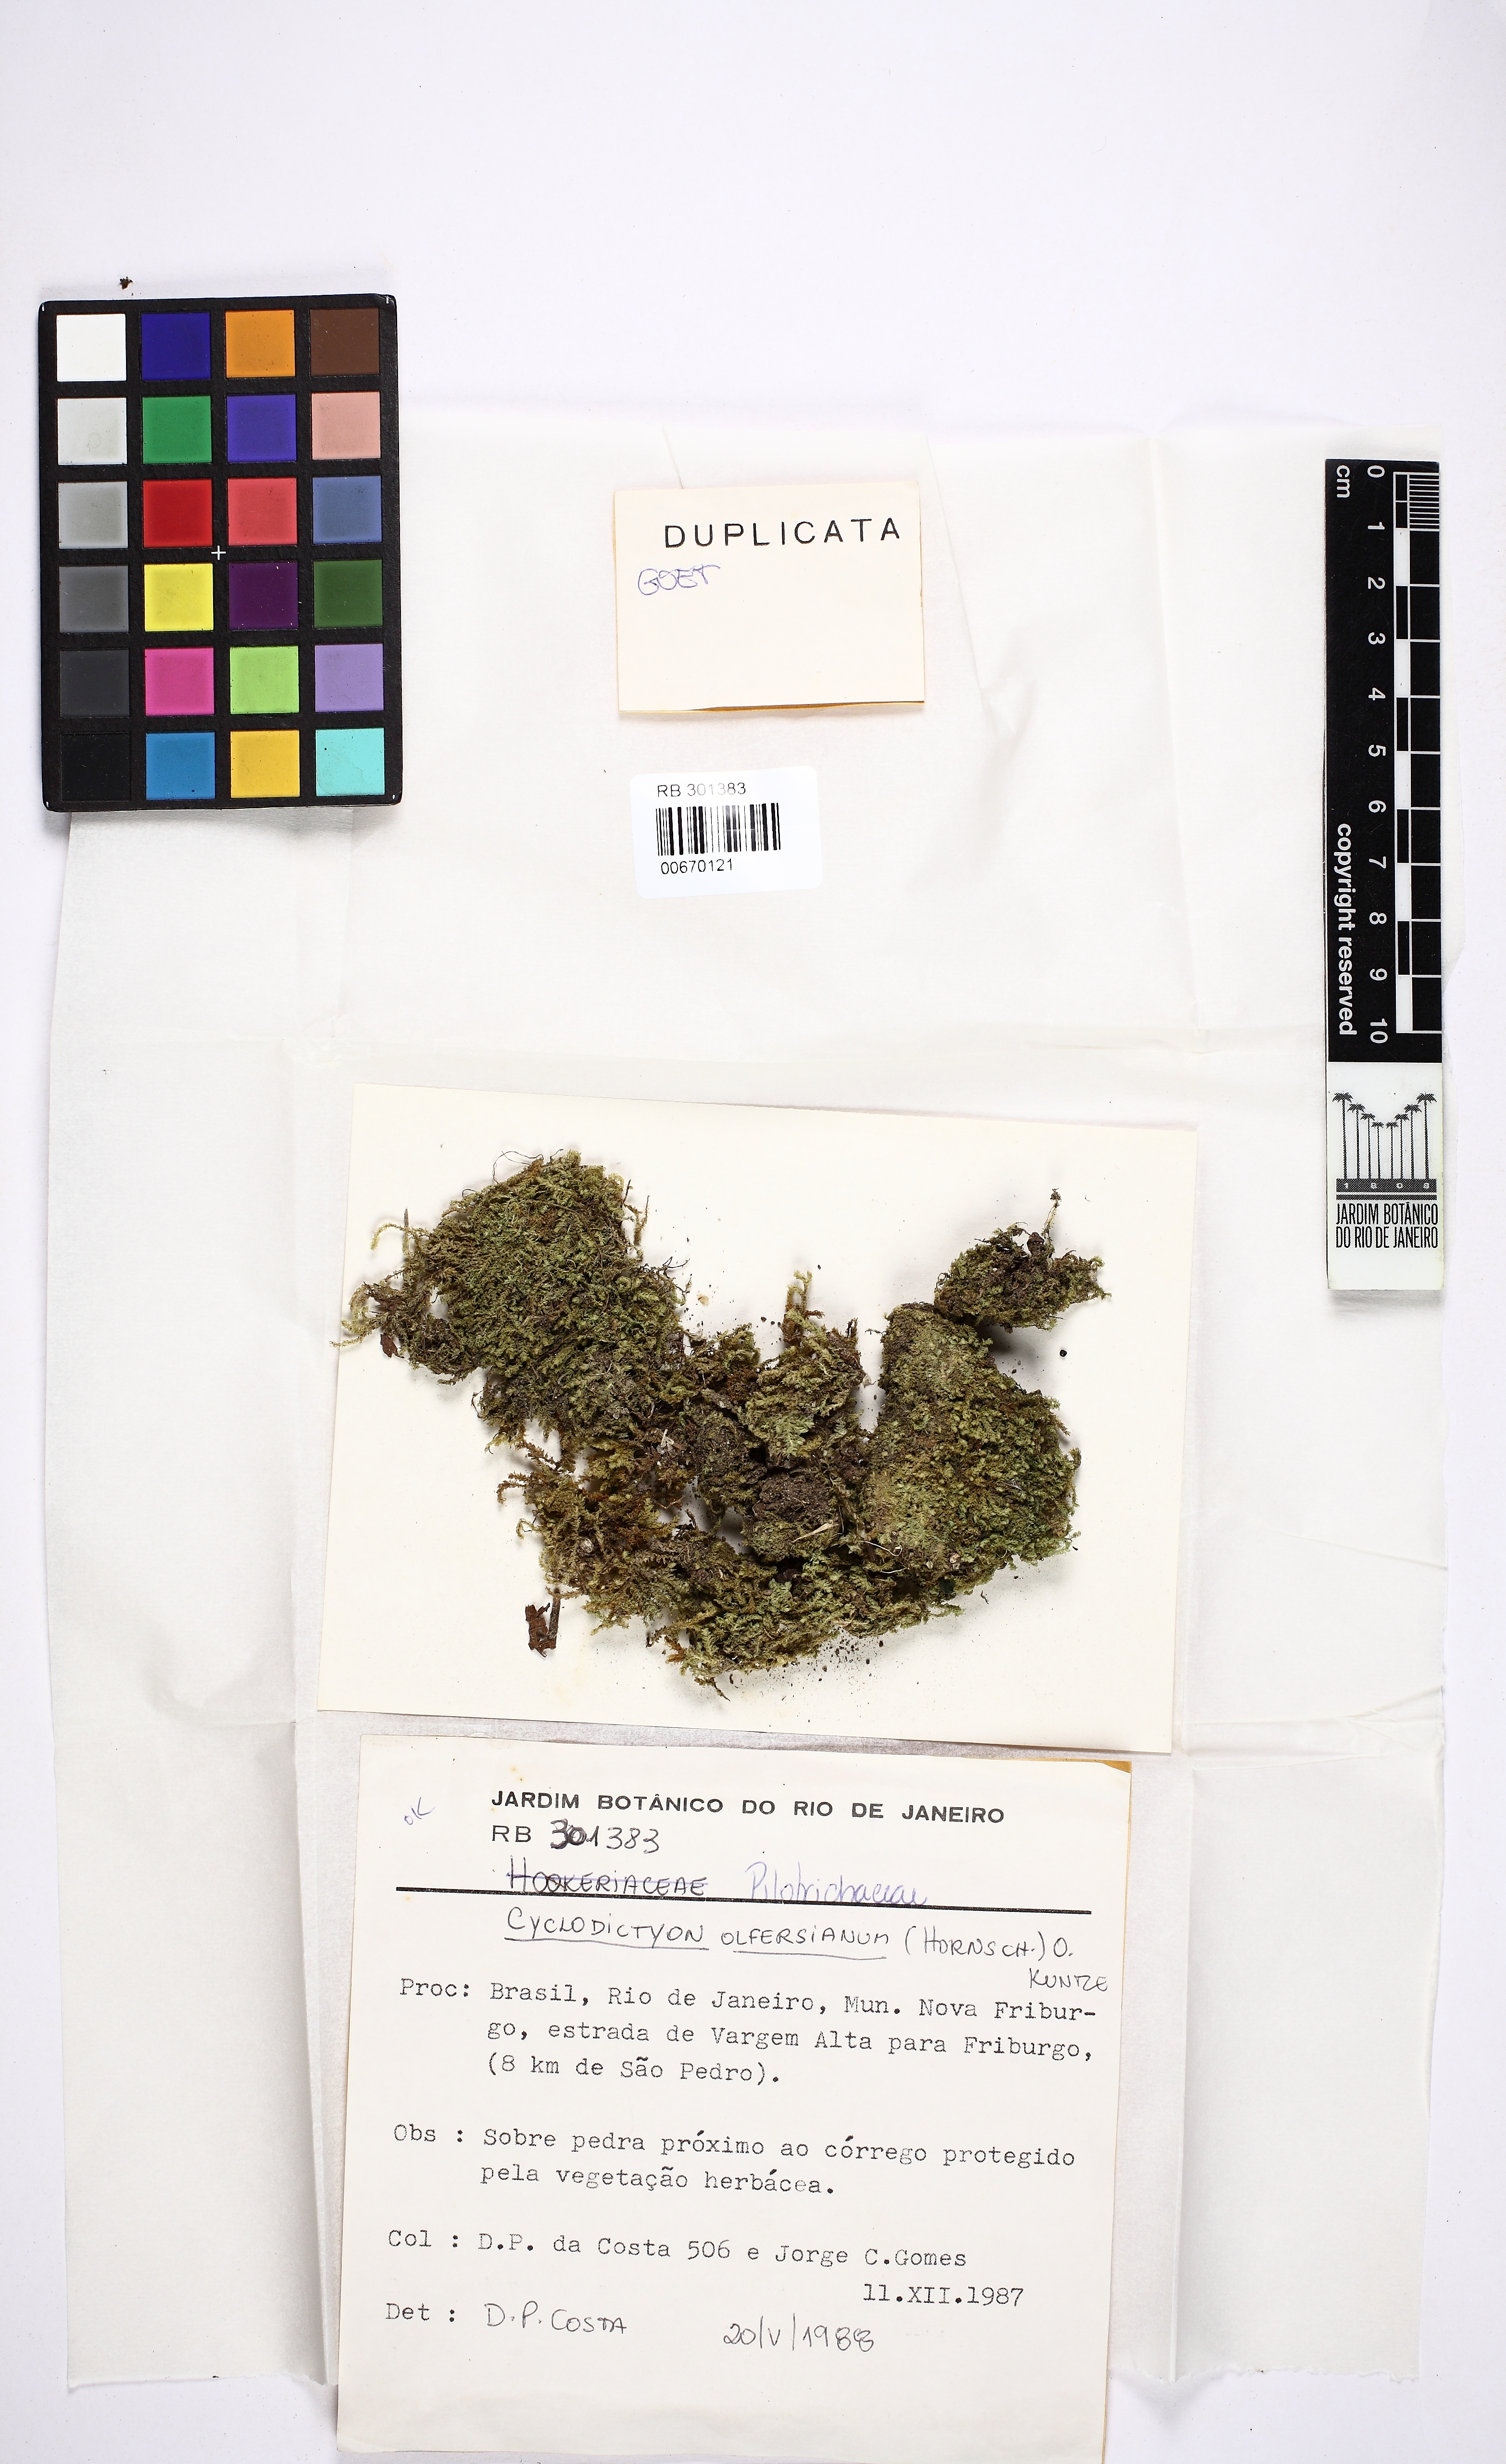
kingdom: Plantae
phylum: Bryophyta
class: Bryopsida
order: Hookeriales
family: Pilotrichaceae
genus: Cyclodictyon
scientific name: Cyclodictyon olfersianum
